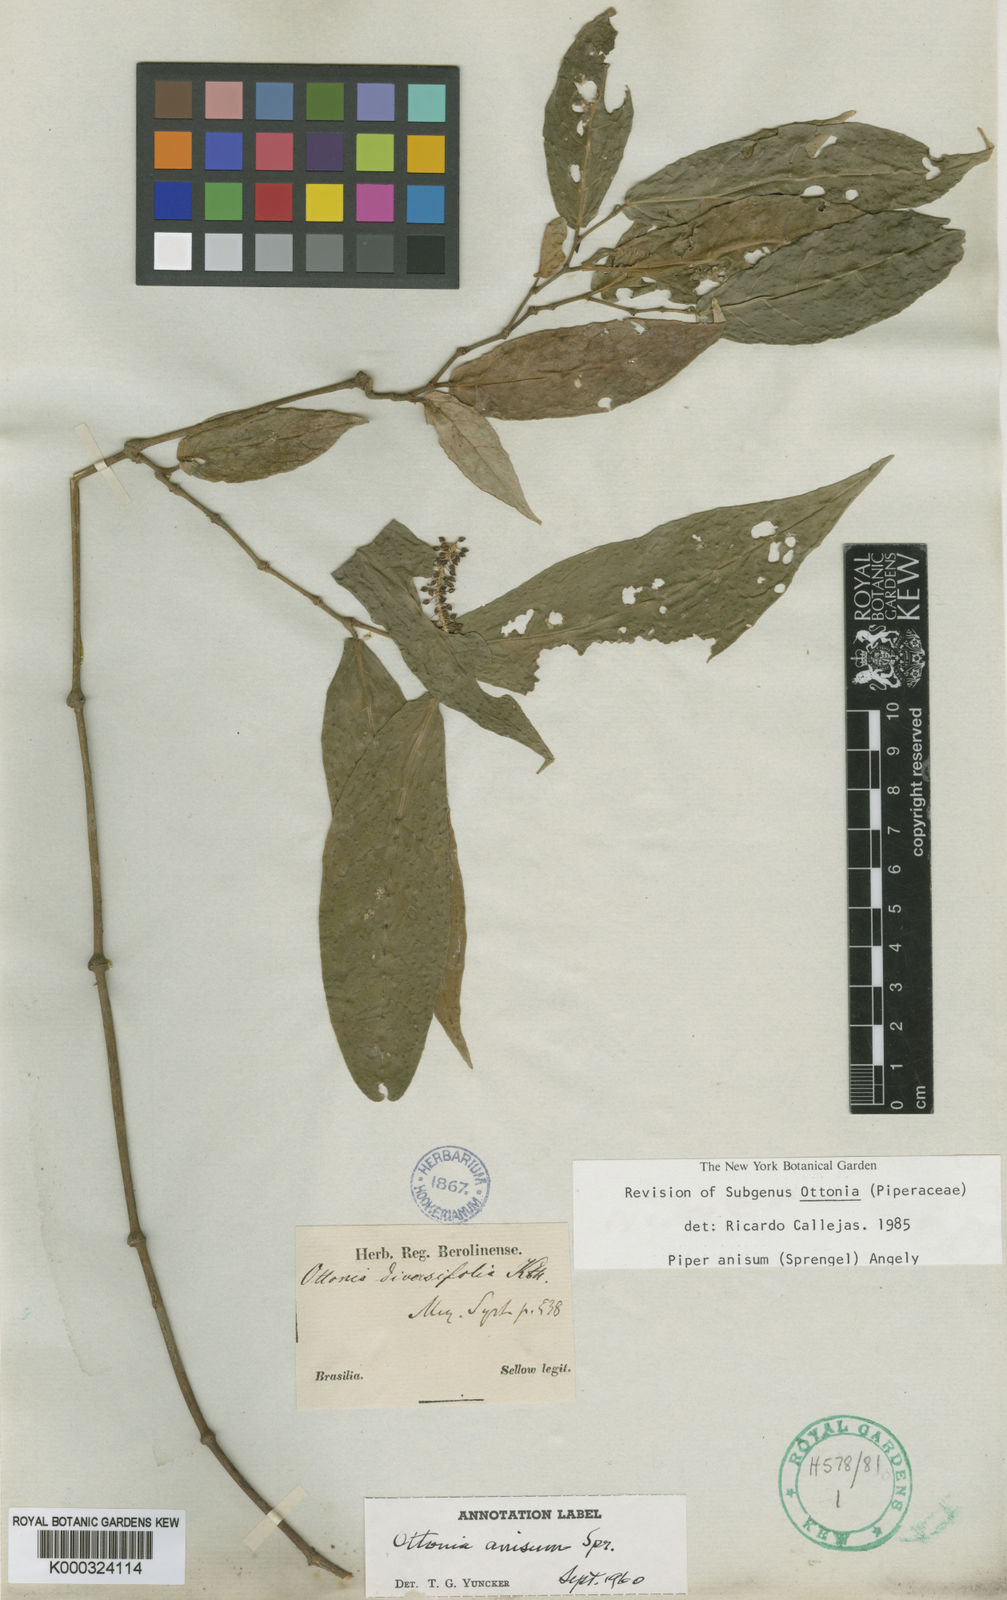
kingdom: Plantae
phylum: Tracheophyta
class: Magnoliopsida
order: Piperales
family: Piperaceae
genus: Piper
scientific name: Piper
